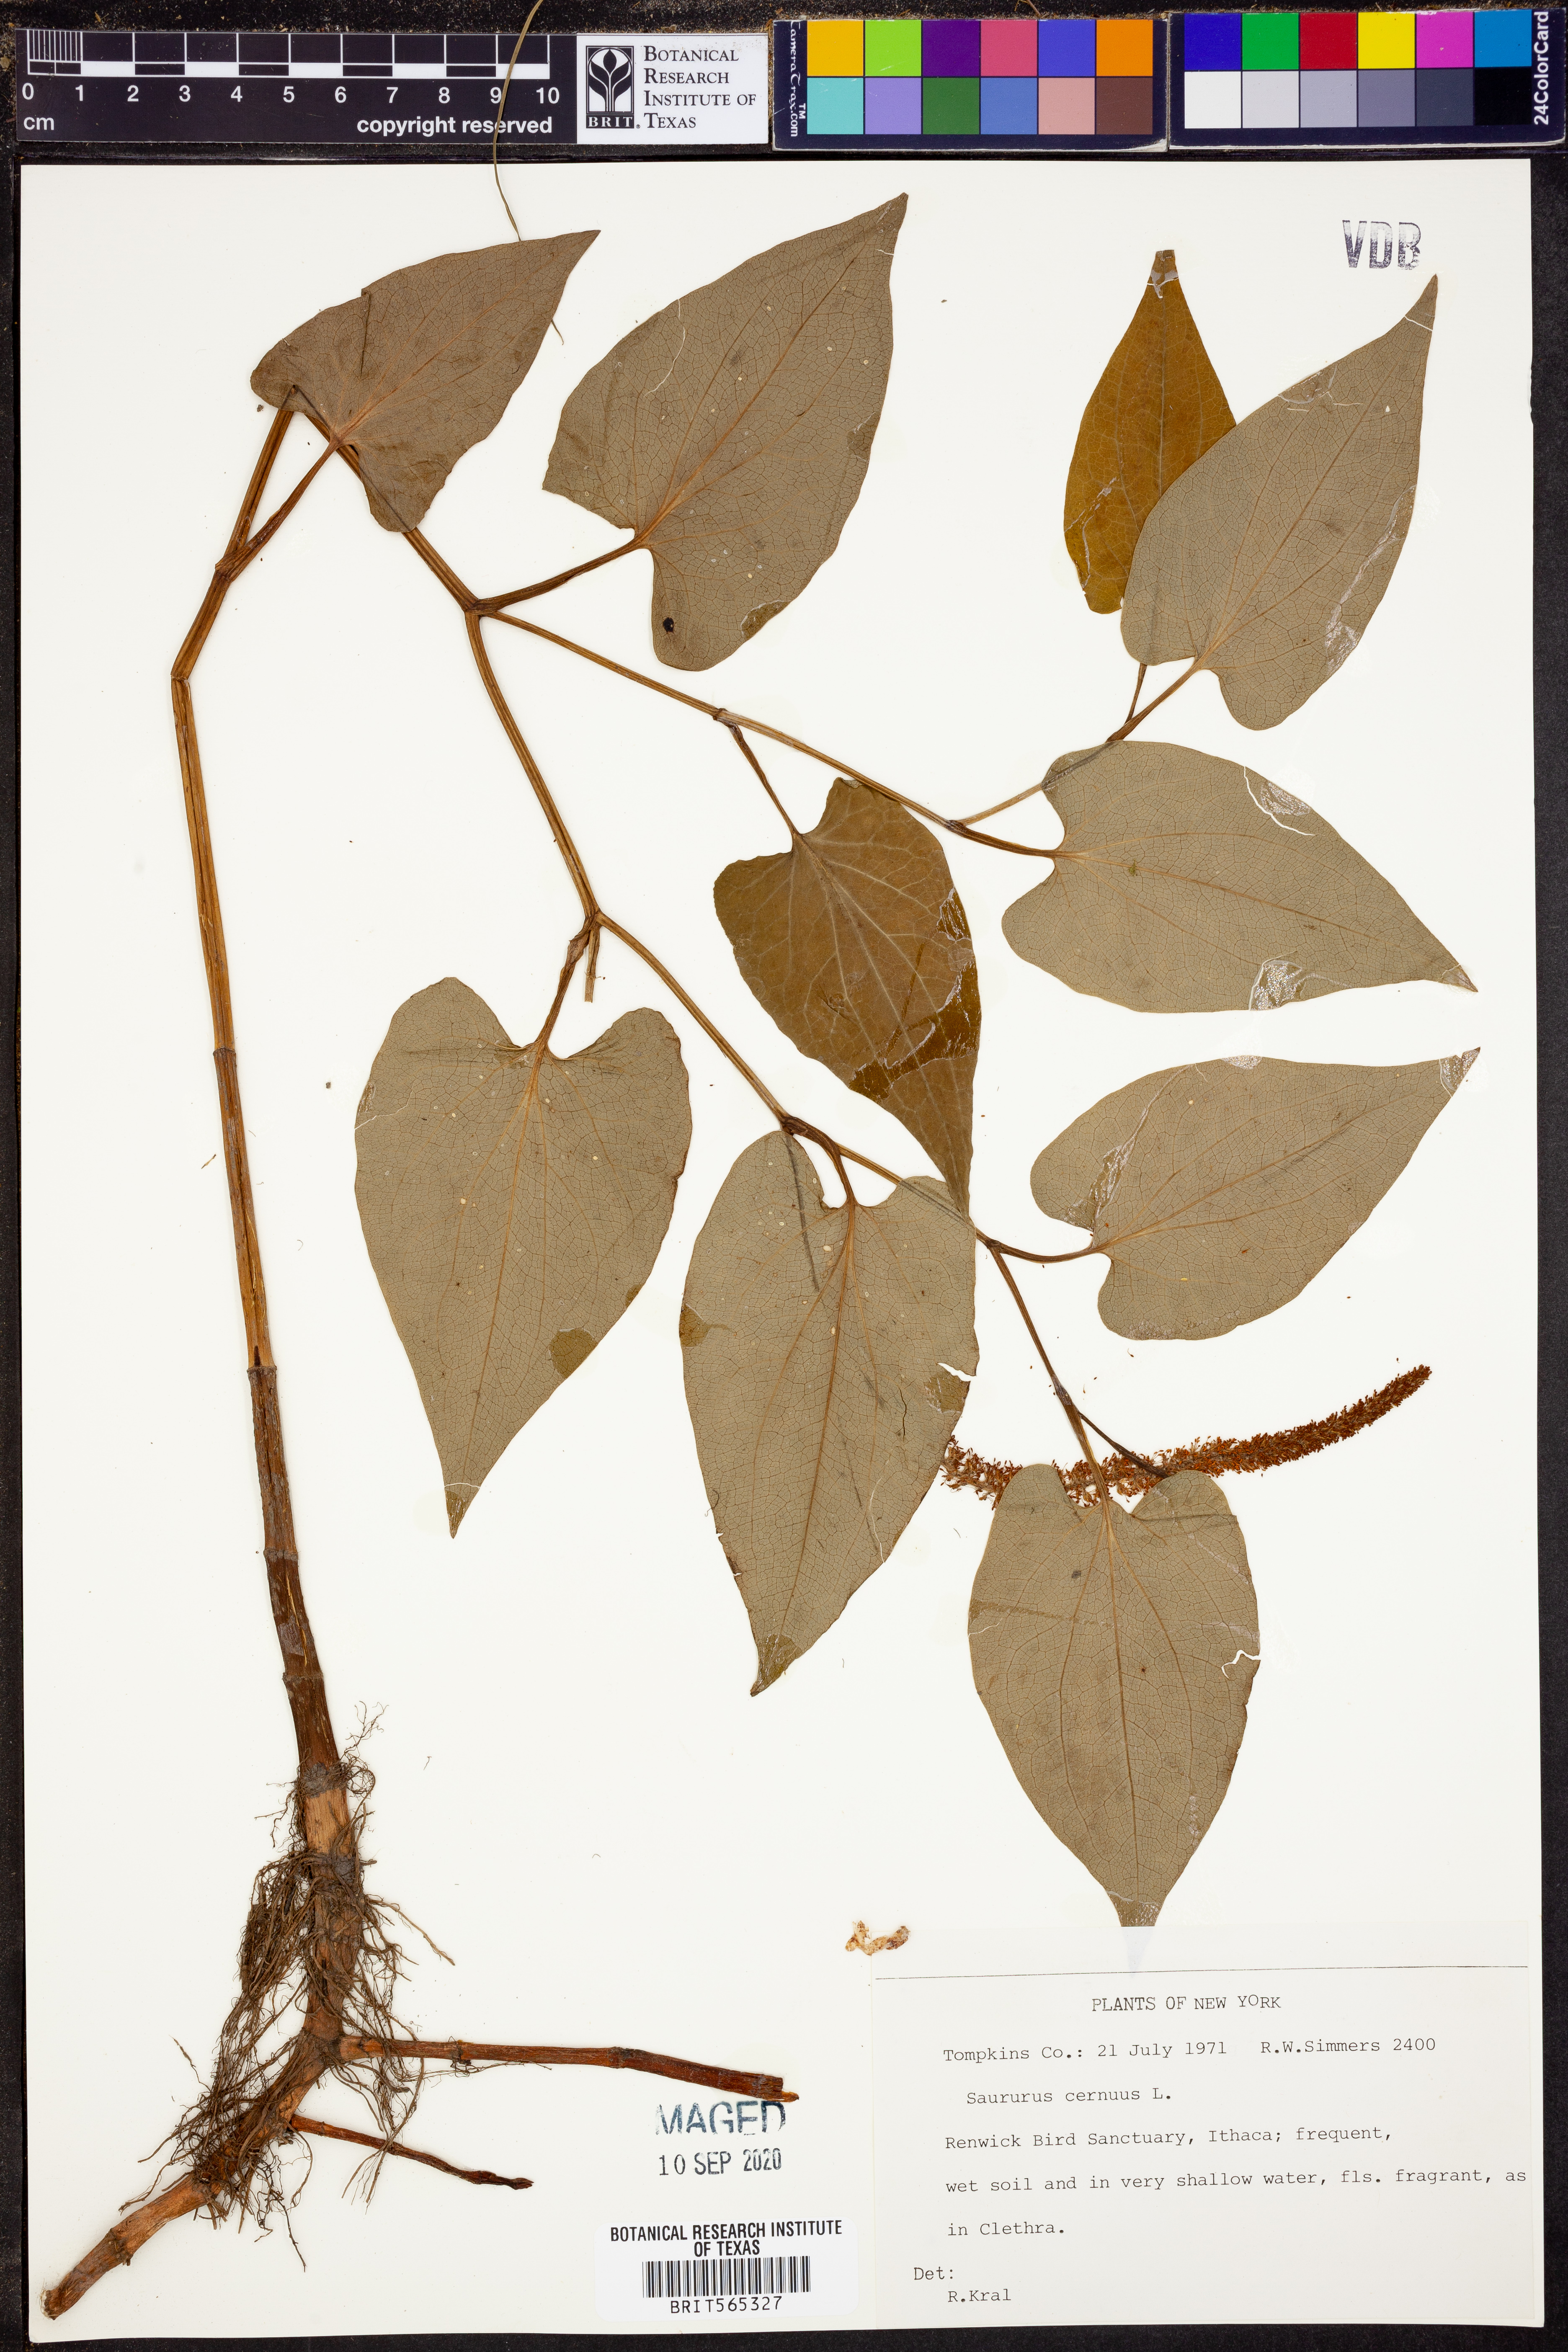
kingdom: Plantae
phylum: Tracheophyta
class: Magnoliopsida
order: Piperales
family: Saururaceae
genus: Saururus
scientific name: Saururus cernuus
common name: Lizard's-tail
